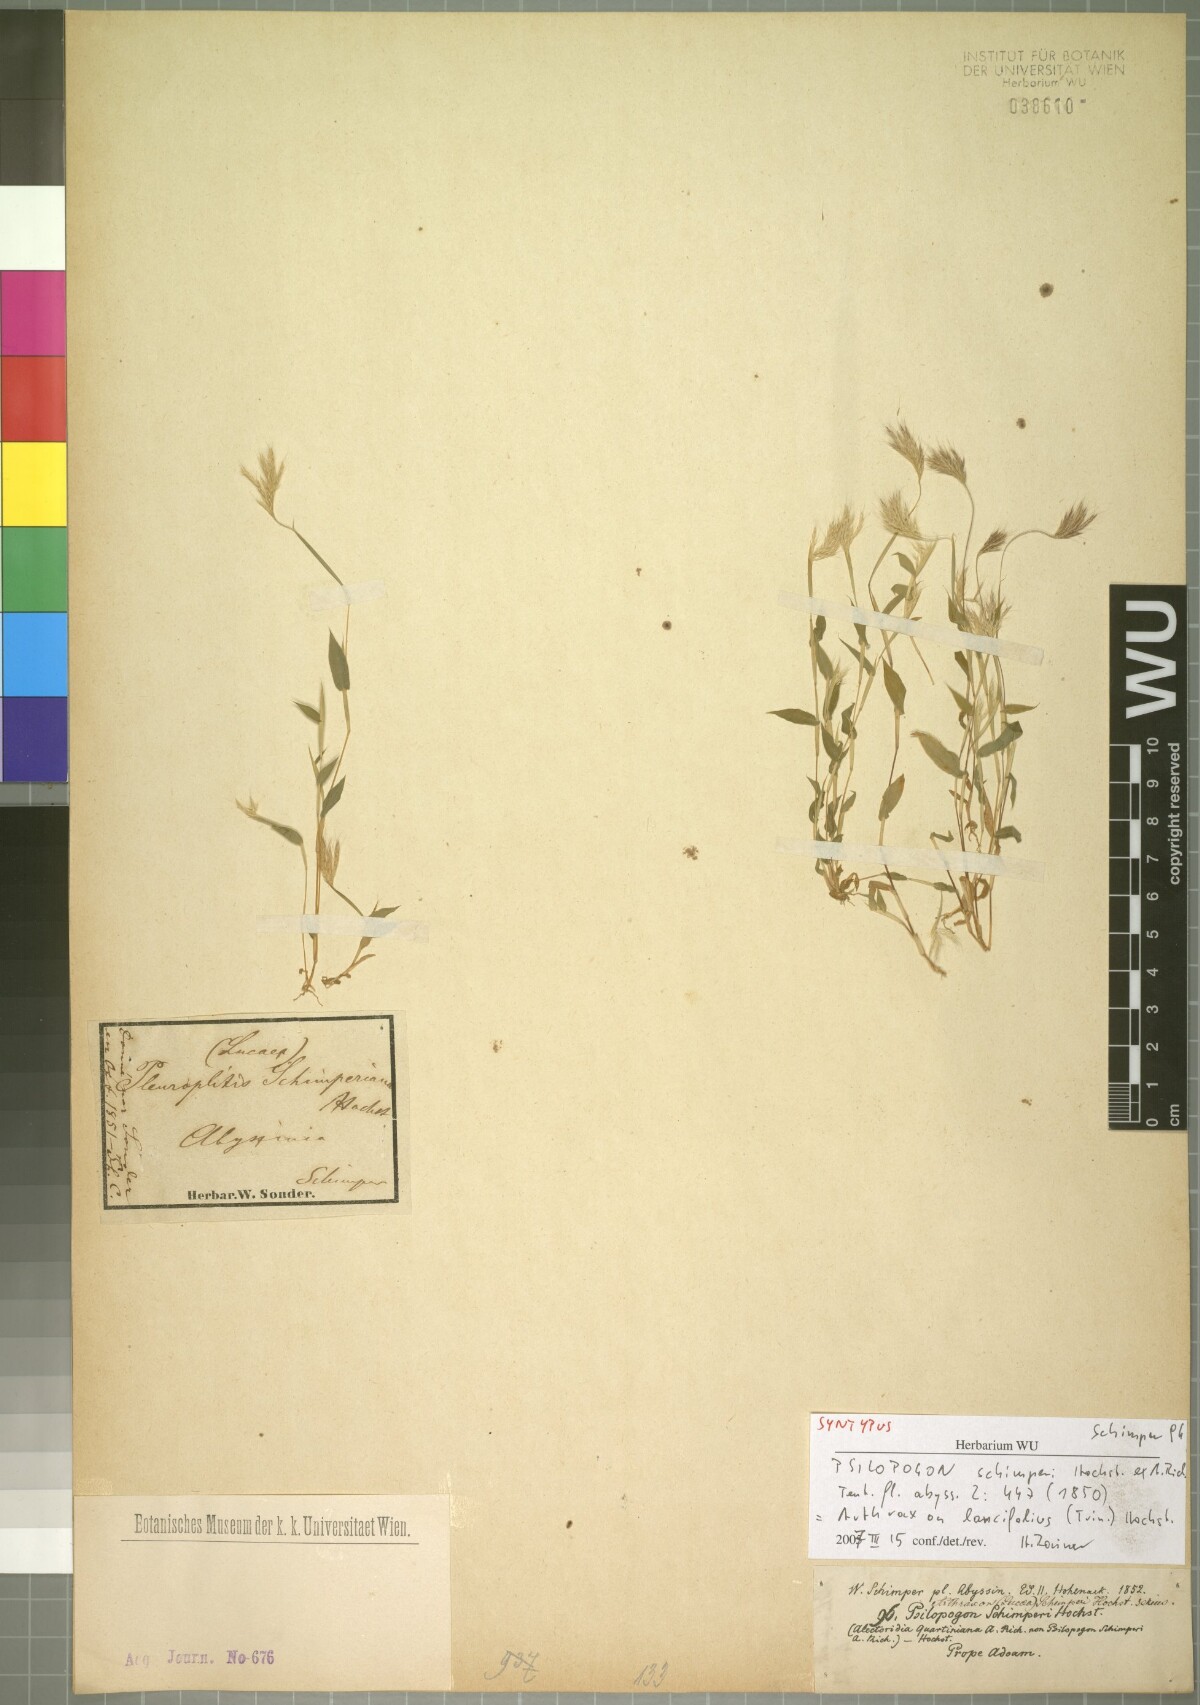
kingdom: Plantae
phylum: Tracheophyta
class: Liliopsida
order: Poales
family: Poaceae
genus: Arthraxon
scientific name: Arthraxon lancifolius
